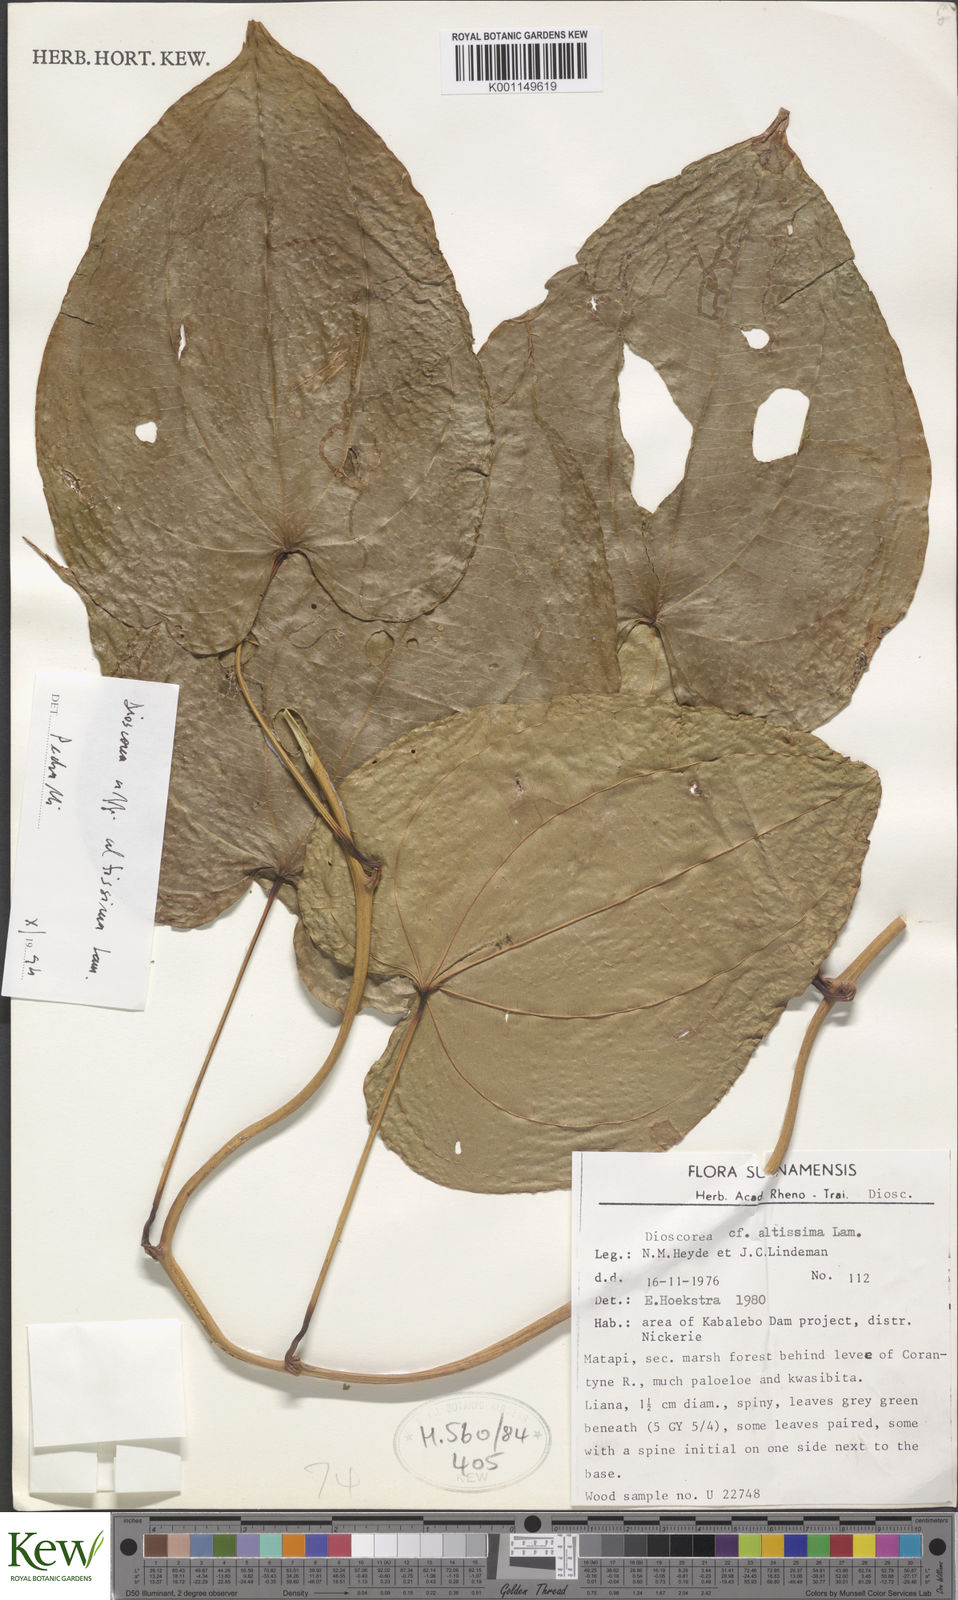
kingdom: Plantae
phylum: Tracheophyta
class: Liliopsida
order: Dioscoreales
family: Dioscoreaceae
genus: Dioscorea
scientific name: Dioscorea chondrocarpa
